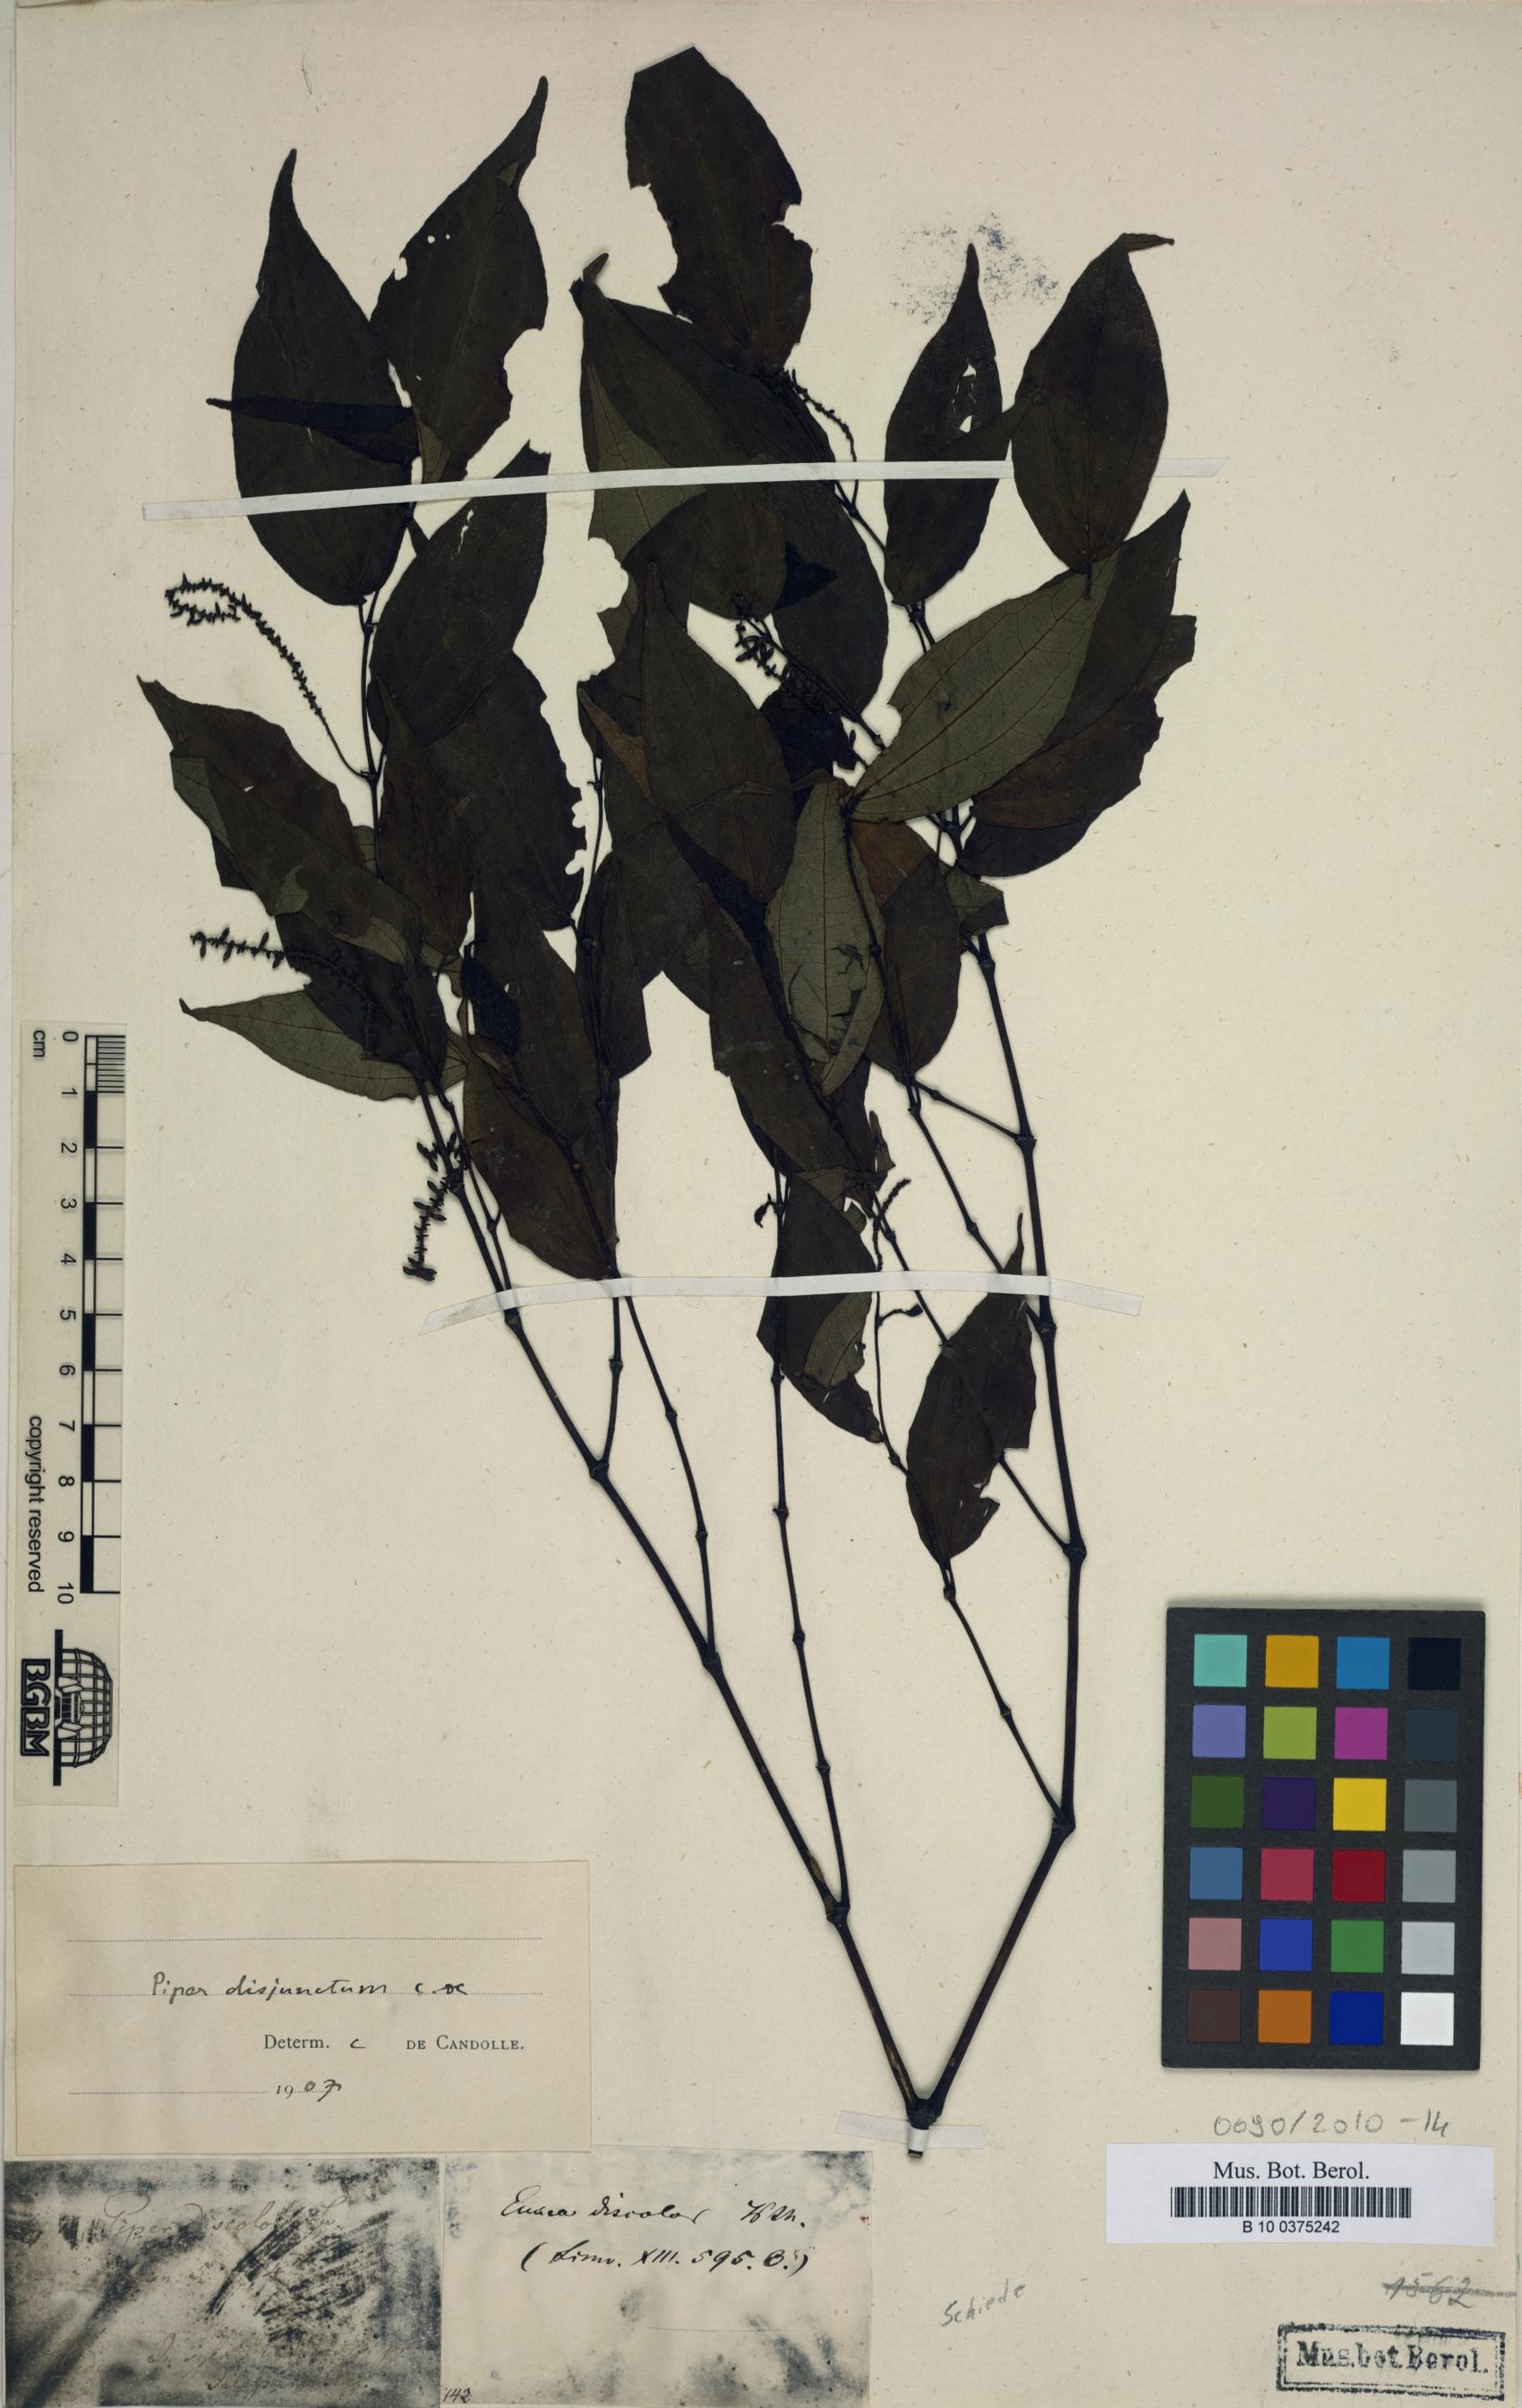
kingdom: Plantae
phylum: Tracheophyta
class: Magnoliopsida
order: Piperales
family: Piperaceae
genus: Piper
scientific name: Piper schlechtendalii
